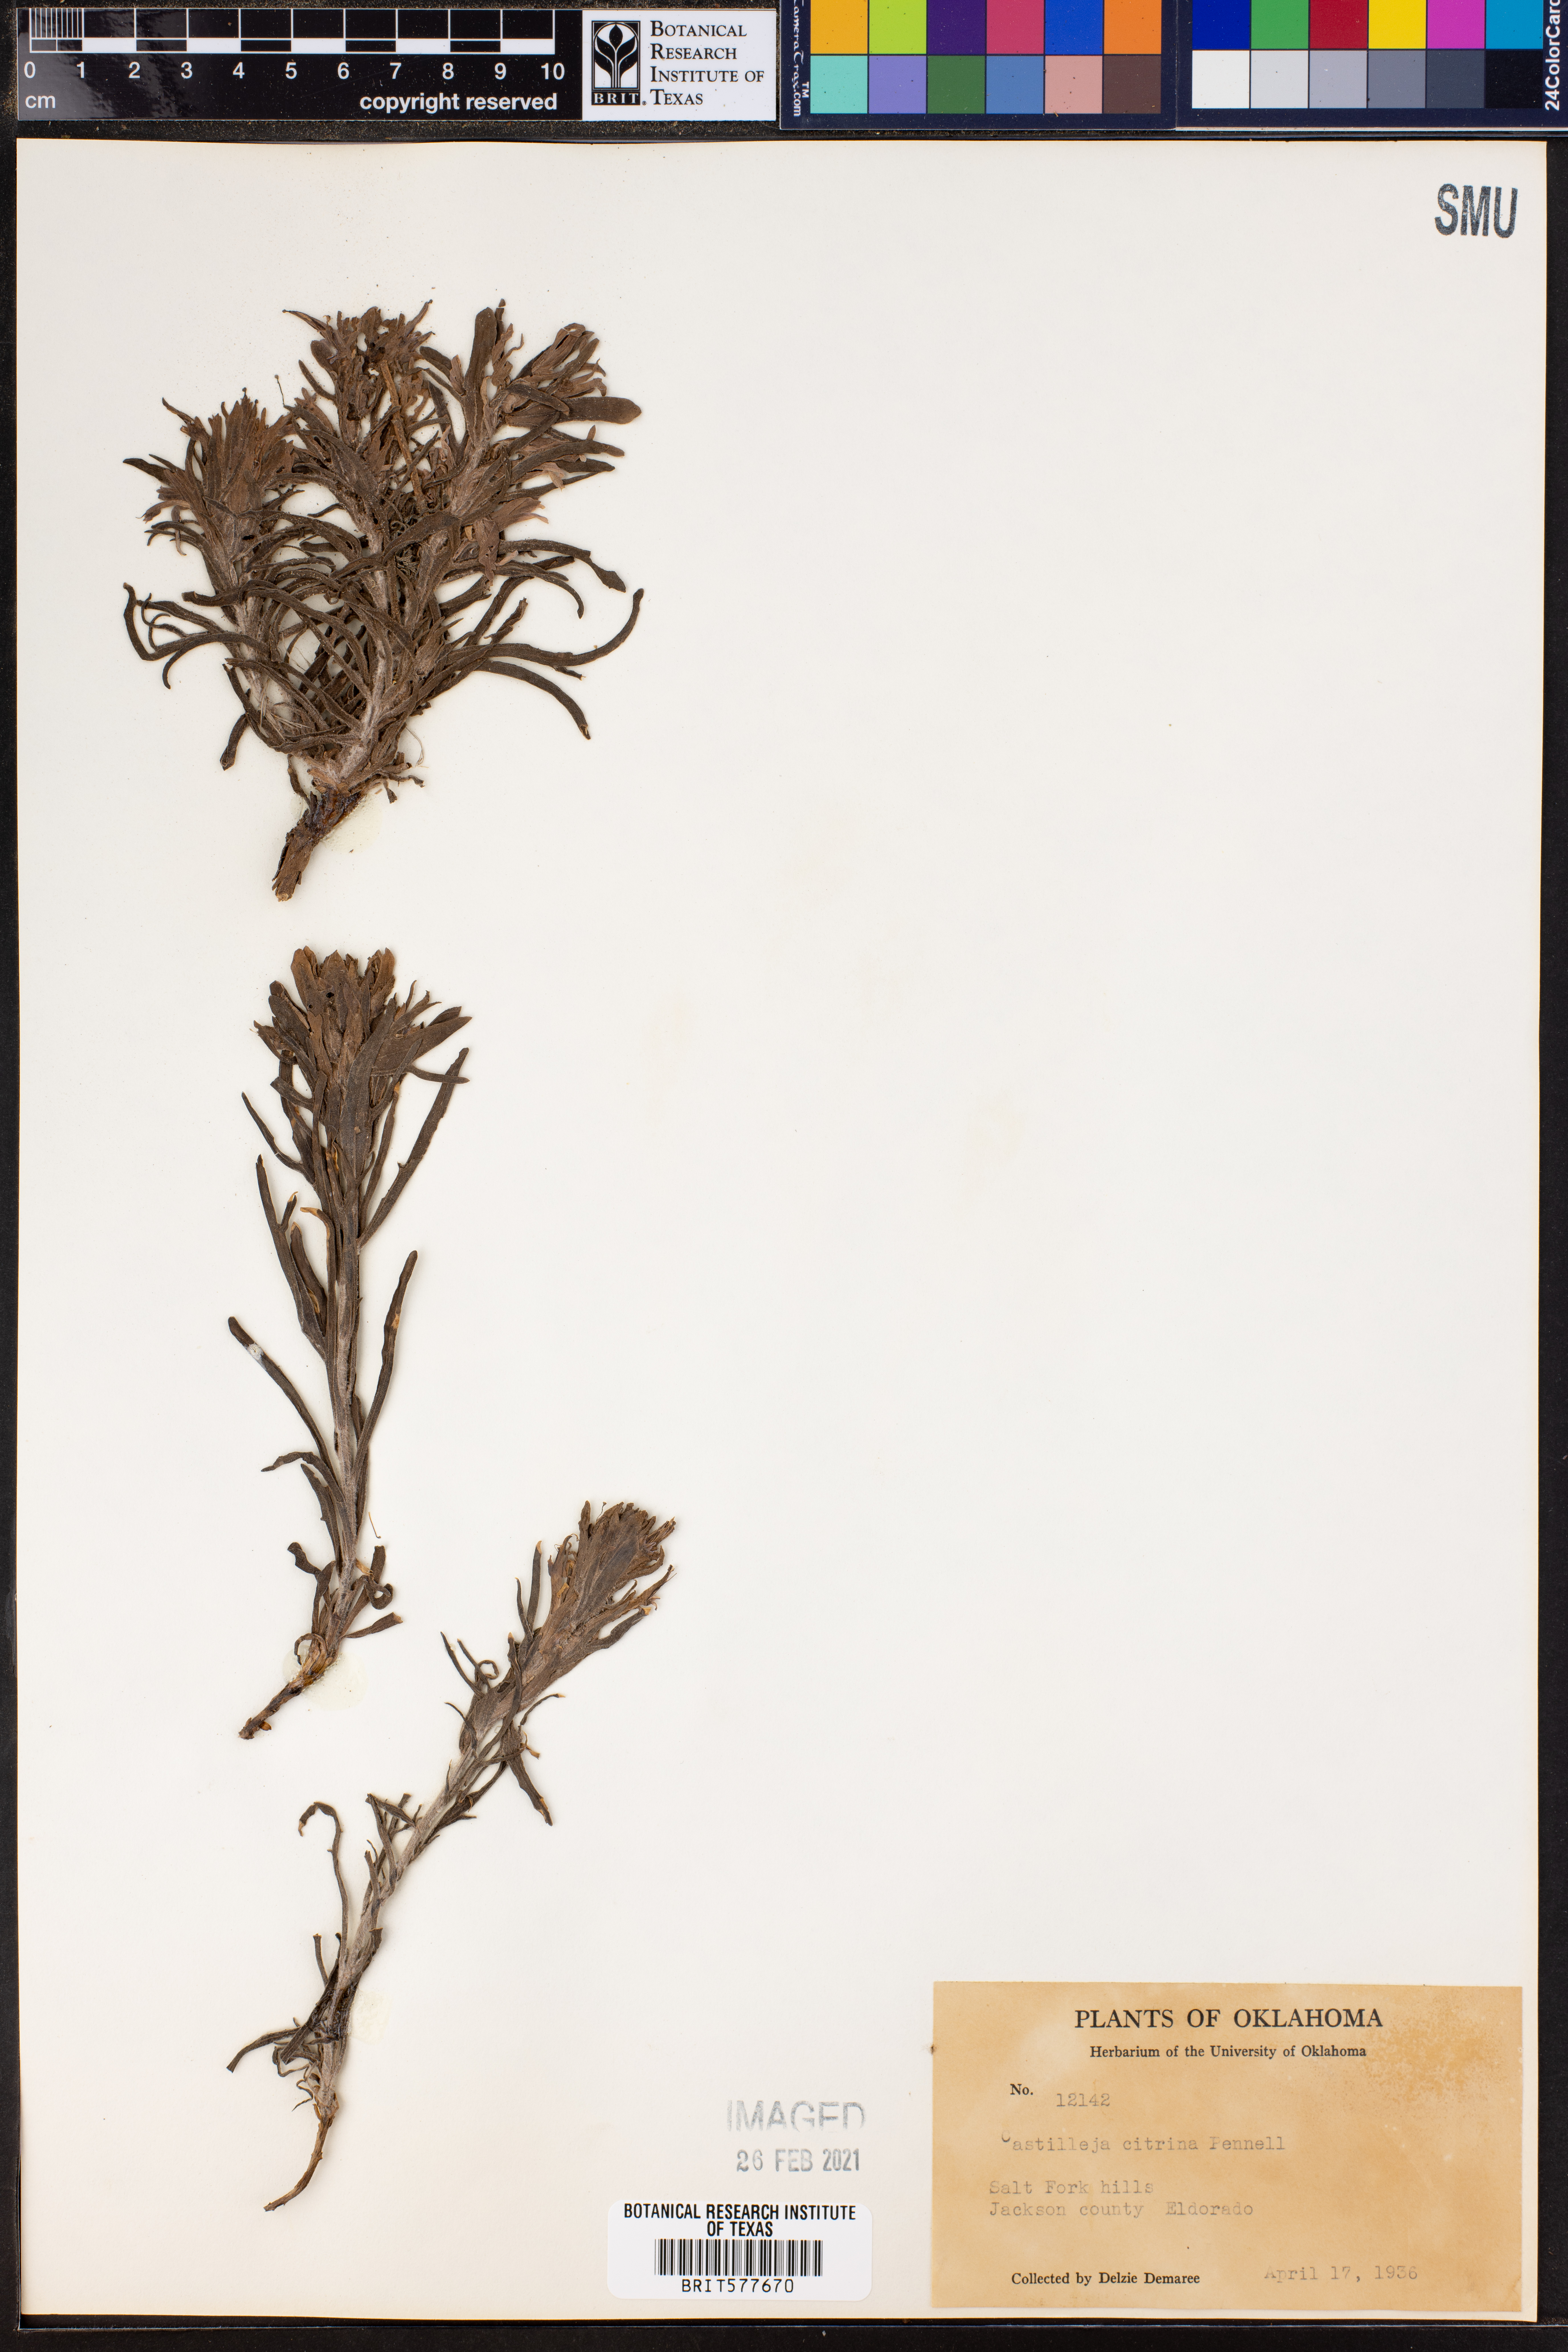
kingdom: Plantae
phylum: Tracheophyta
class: Magnoliopsida
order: Lamiales
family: Orobanchaceae
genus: Castilleja
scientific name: Castilleja citrina
